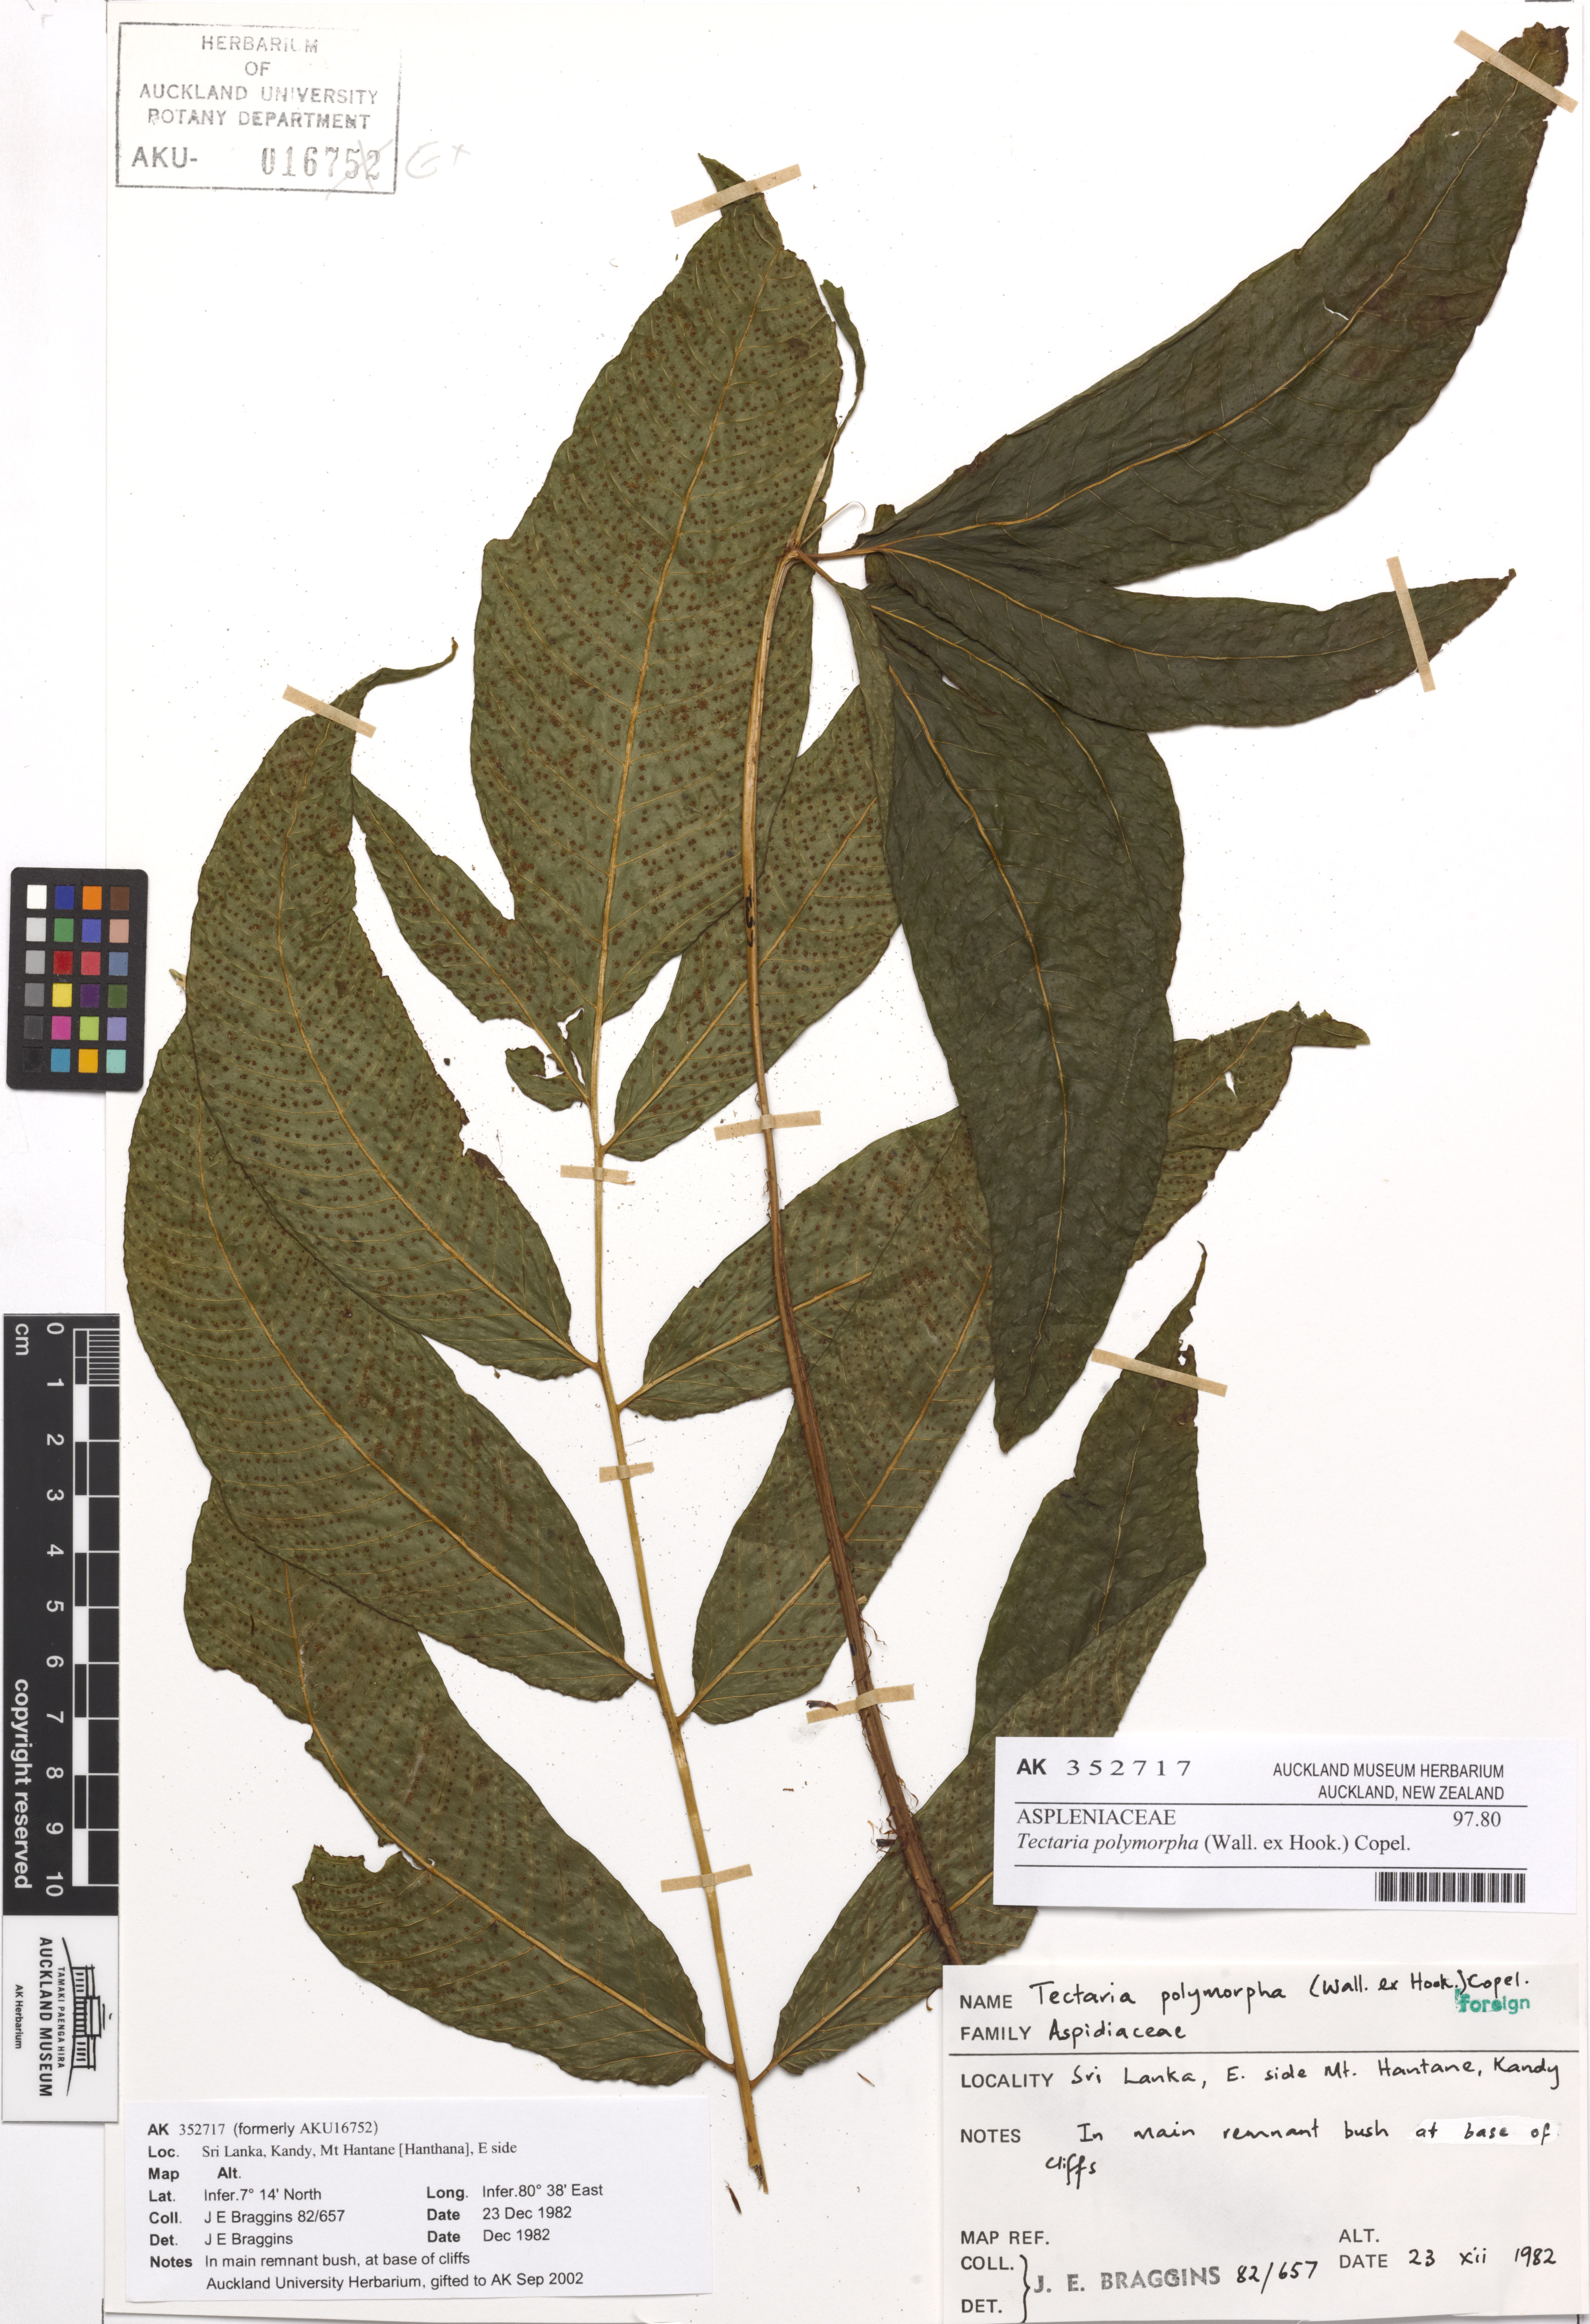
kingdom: Plantae
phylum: Tracheophyta
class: Polypodiopsida
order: Polypodiales
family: Tectariaceae
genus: Tectaria
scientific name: Tectaria polymorpha
